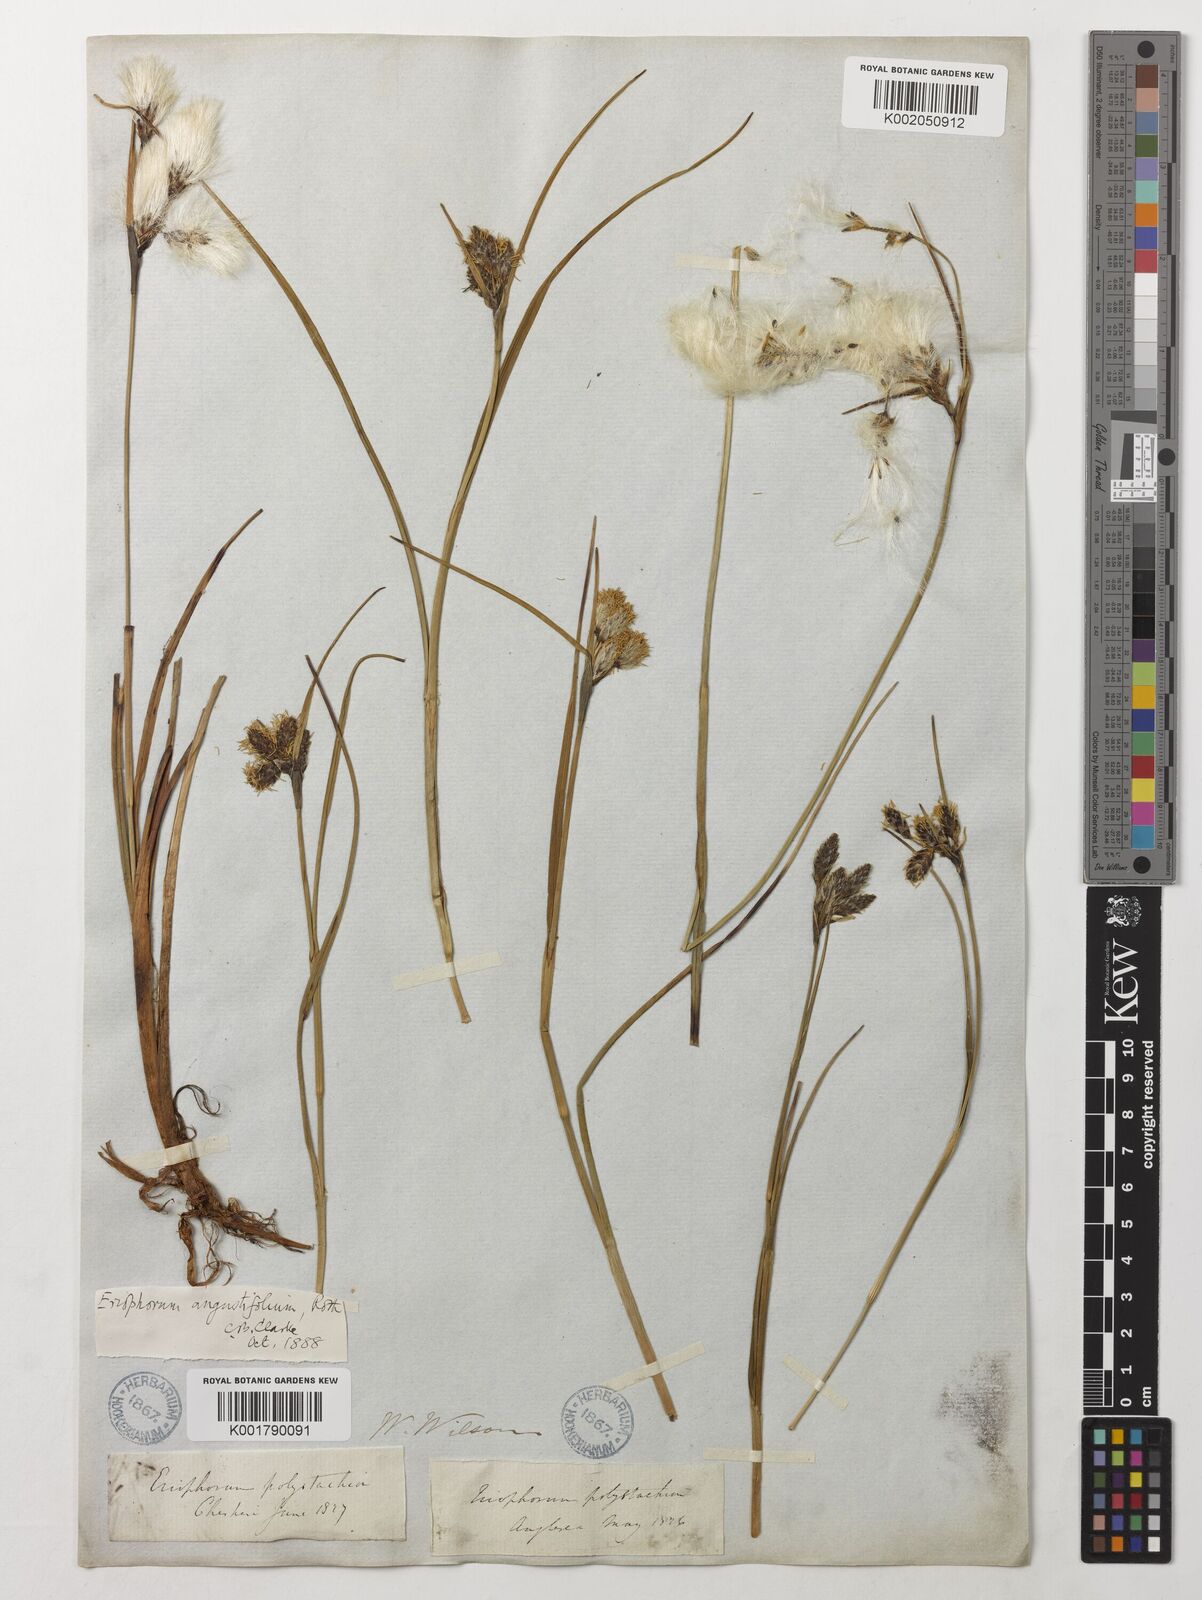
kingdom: Plantae
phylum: Tracheophyta
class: Liliopsida
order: Poales
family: Cyperaceae
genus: Eriophorum
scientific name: Eriophorum angustifolium
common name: Common cottongrass
